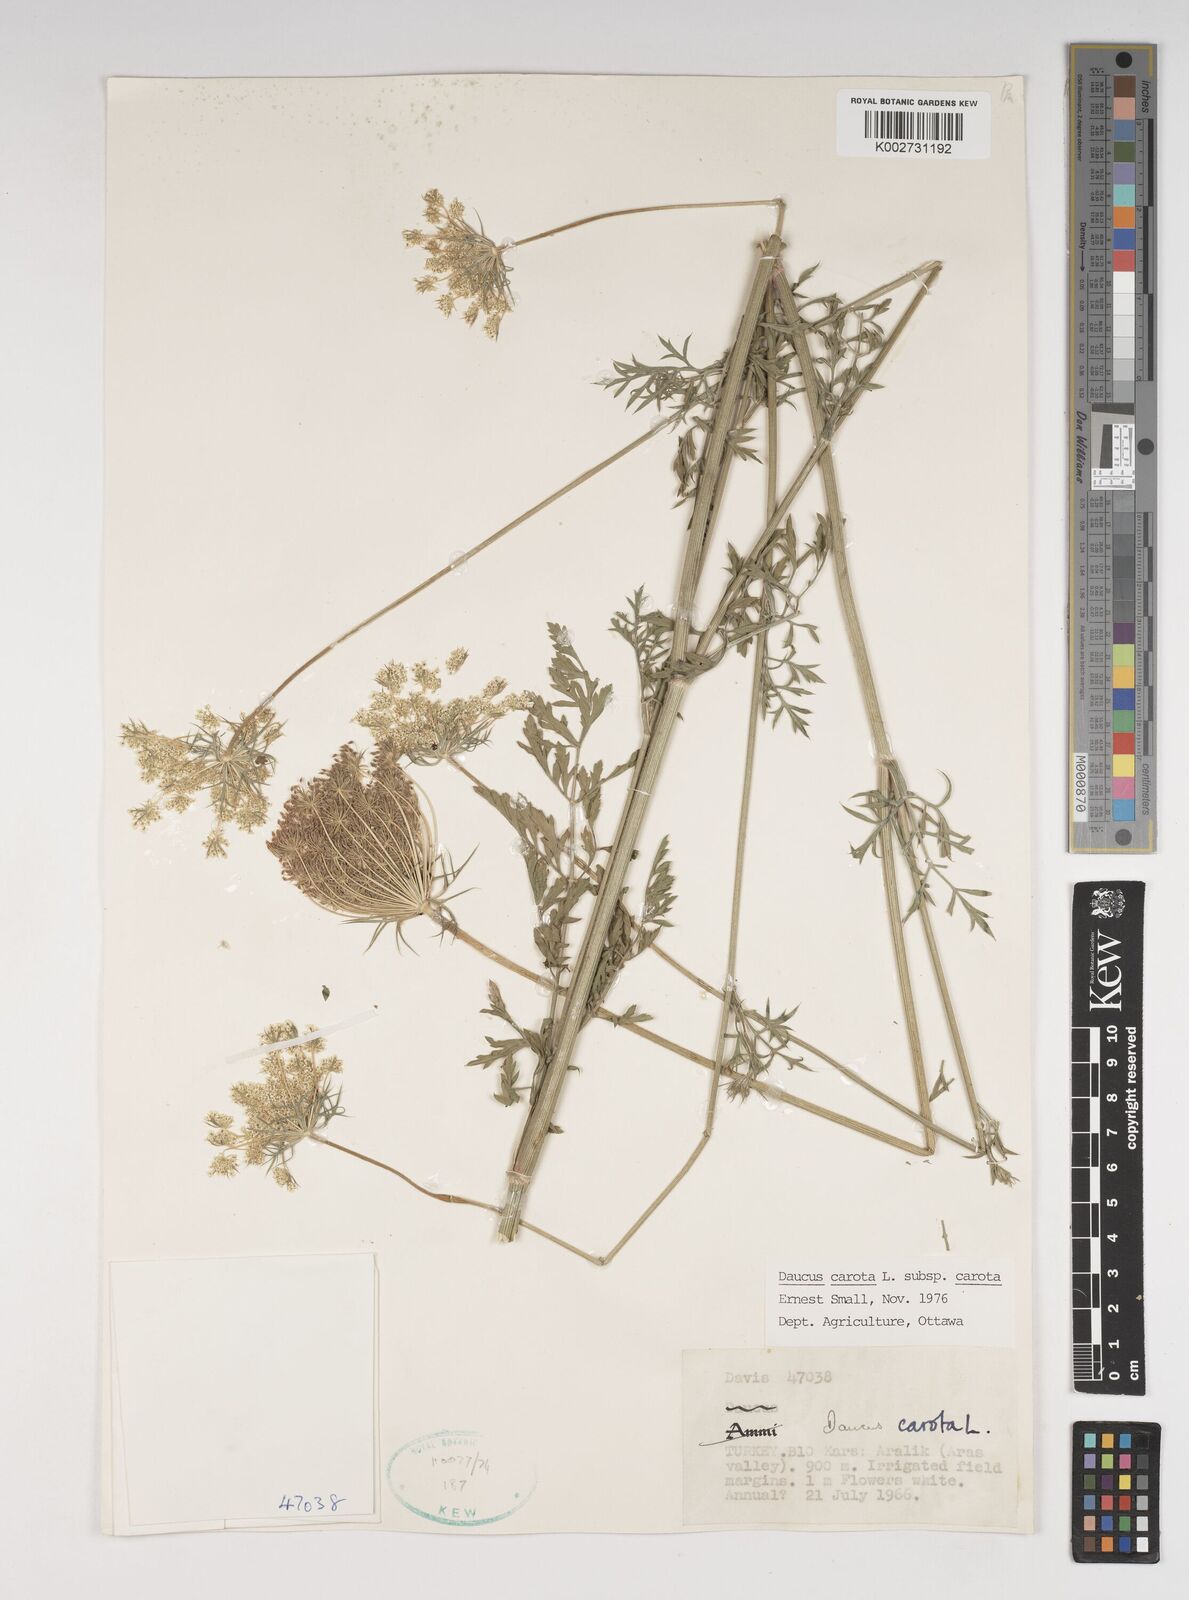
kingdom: Plantae
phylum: Tracheophyta
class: Magnoliopsida
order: Apiales
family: Apiaceae
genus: Daucus
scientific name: Daucus carota
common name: Wild carrot
